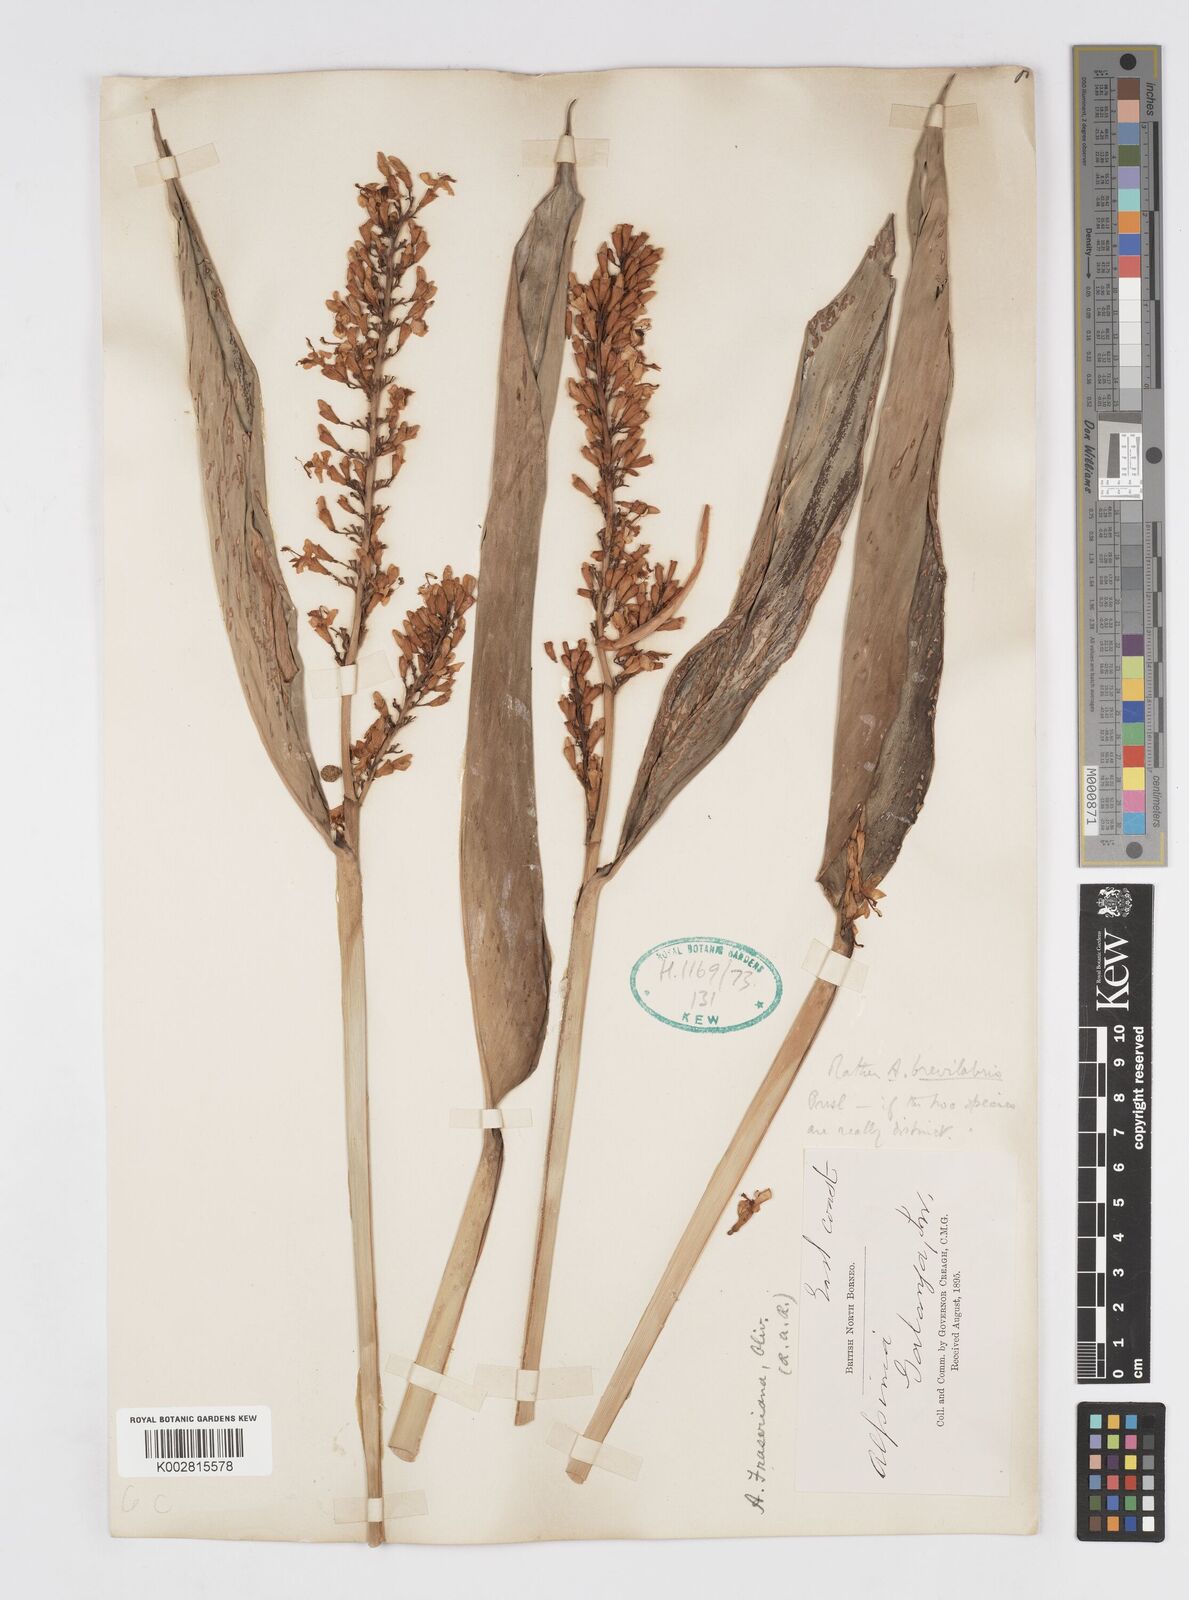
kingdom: Plantae
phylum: Tracheophyta
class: Liliopsida
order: Zingiberales
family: Zingiberaceae
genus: Alpinia
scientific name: Alpinia brevilabris
